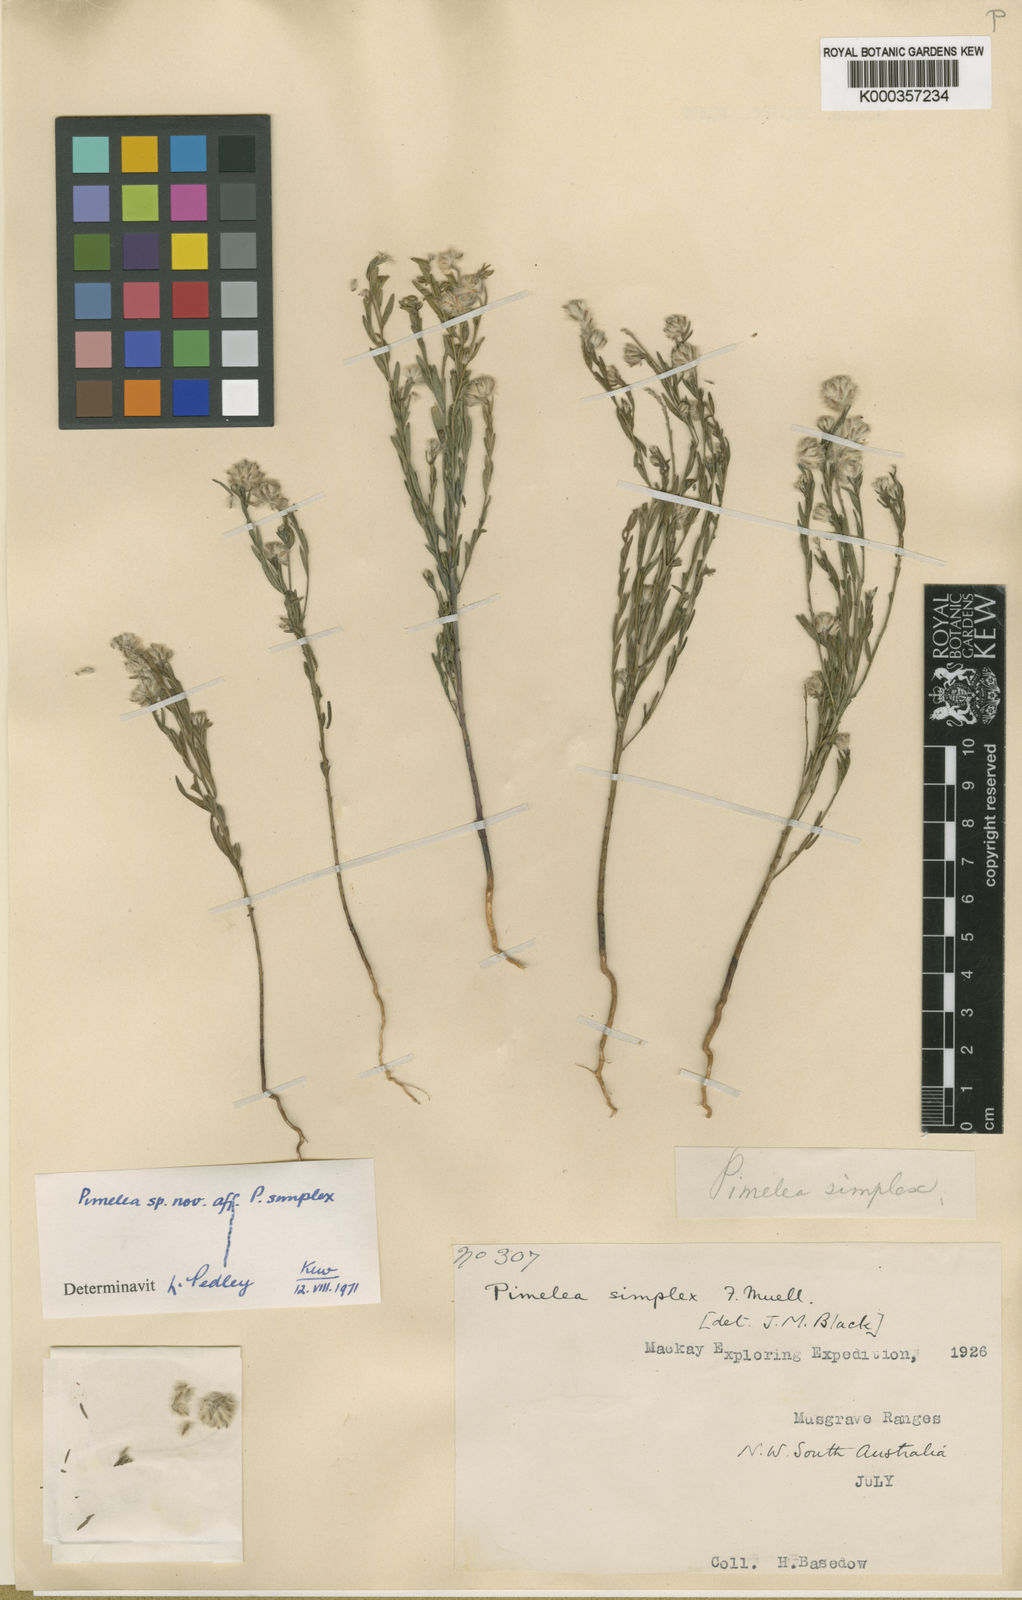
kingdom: Plantae
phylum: Tracheophyta
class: Magnoliopsida
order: Malvales
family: Thymelaeaceae
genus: Pimelea
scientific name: Pimelea simplex
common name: Desert riceflower
